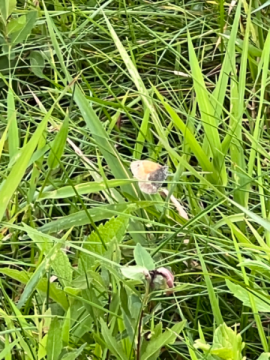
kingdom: Animalia
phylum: Arthropoda
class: Insecta
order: Lepidoptera
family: Nymphalidae
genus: Coenonympha
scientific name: Coenonympha tullia
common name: Large Heath
